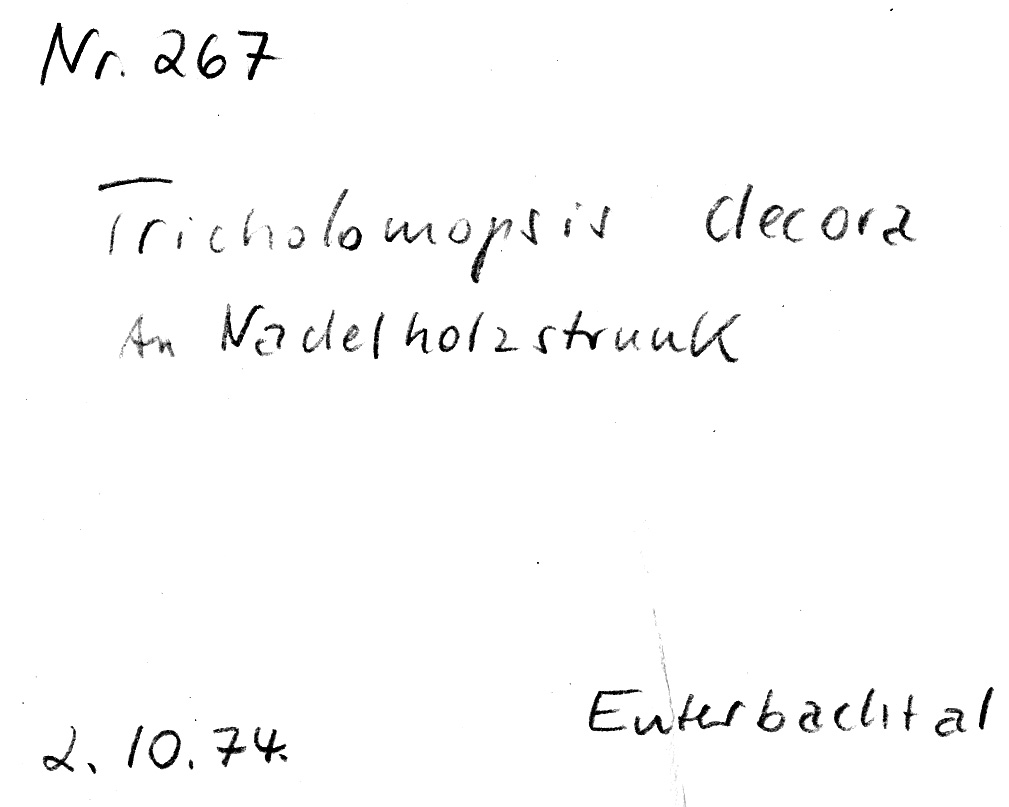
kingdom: Fungi
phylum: Basidiomycota
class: Agaricomycetes
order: Agaricales
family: Tricholomataceae
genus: Tricholomopsis
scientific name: Tricholomopsis decora
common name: Prunes and custard
